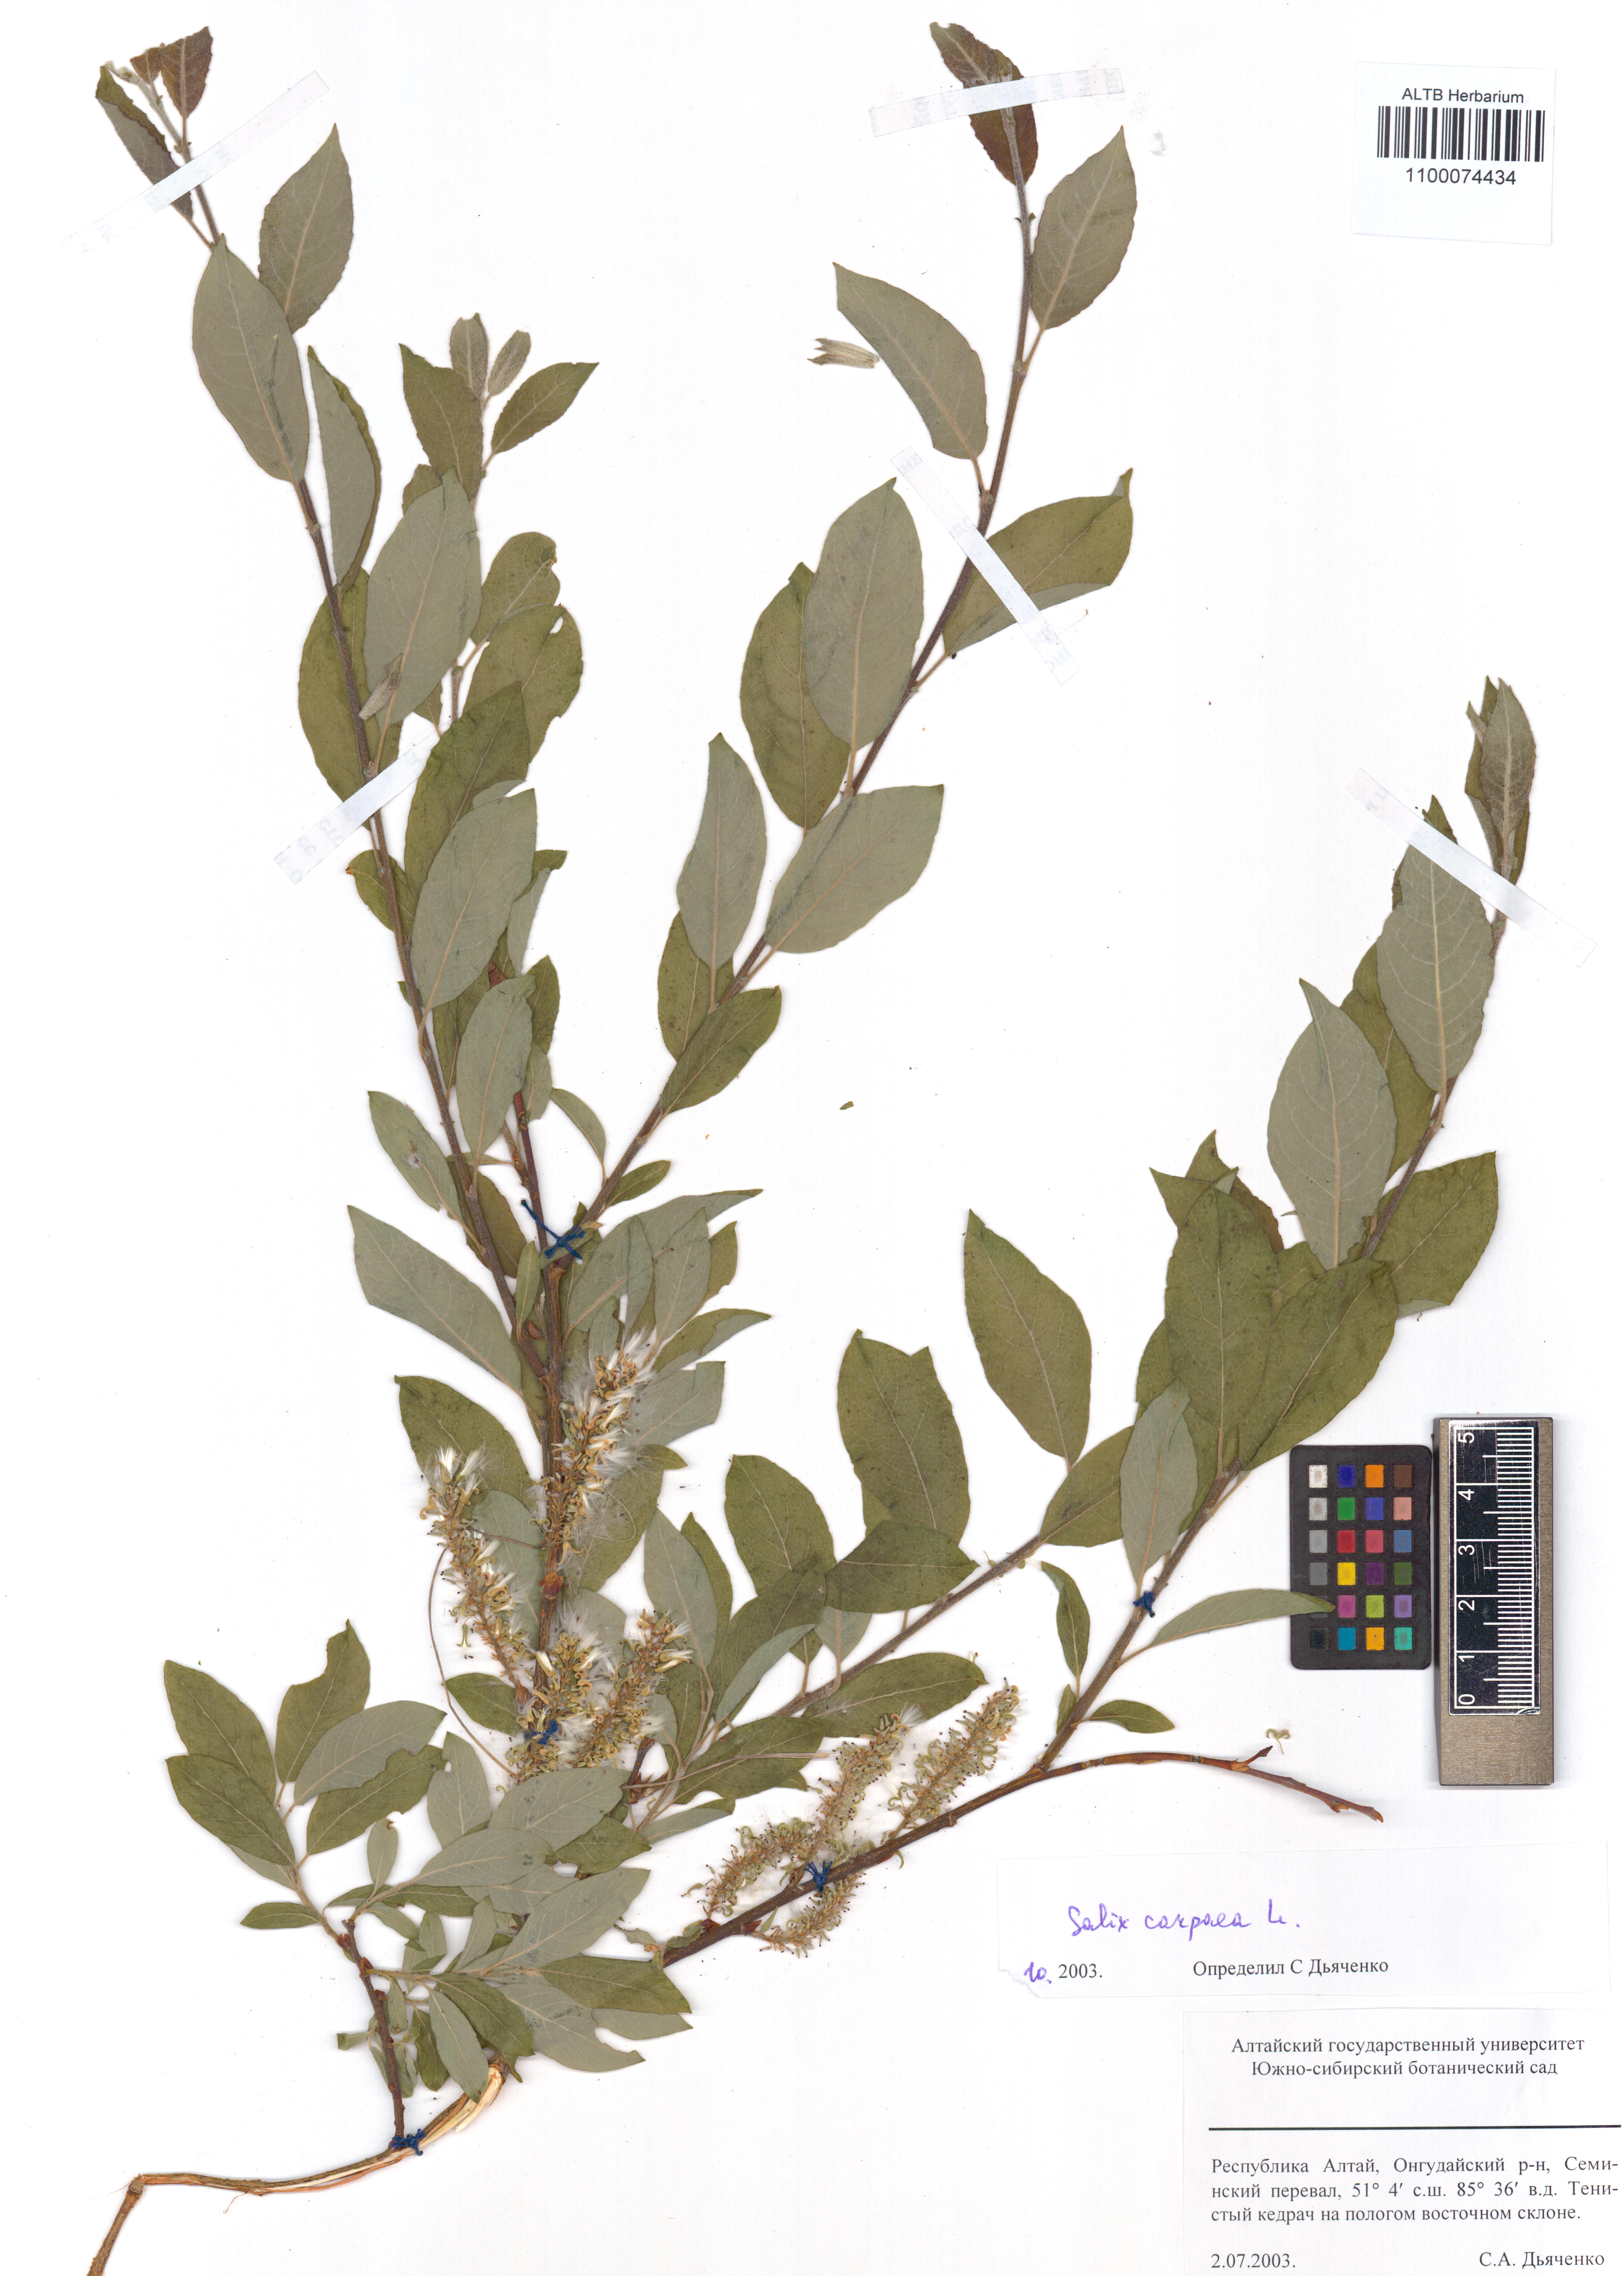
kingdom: Plantae
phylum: Tracheophyta
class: Magnoliopsida
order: Malpighiales
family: Salicaceae
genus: Salix
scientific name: Salix caprea
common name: Goat willow
